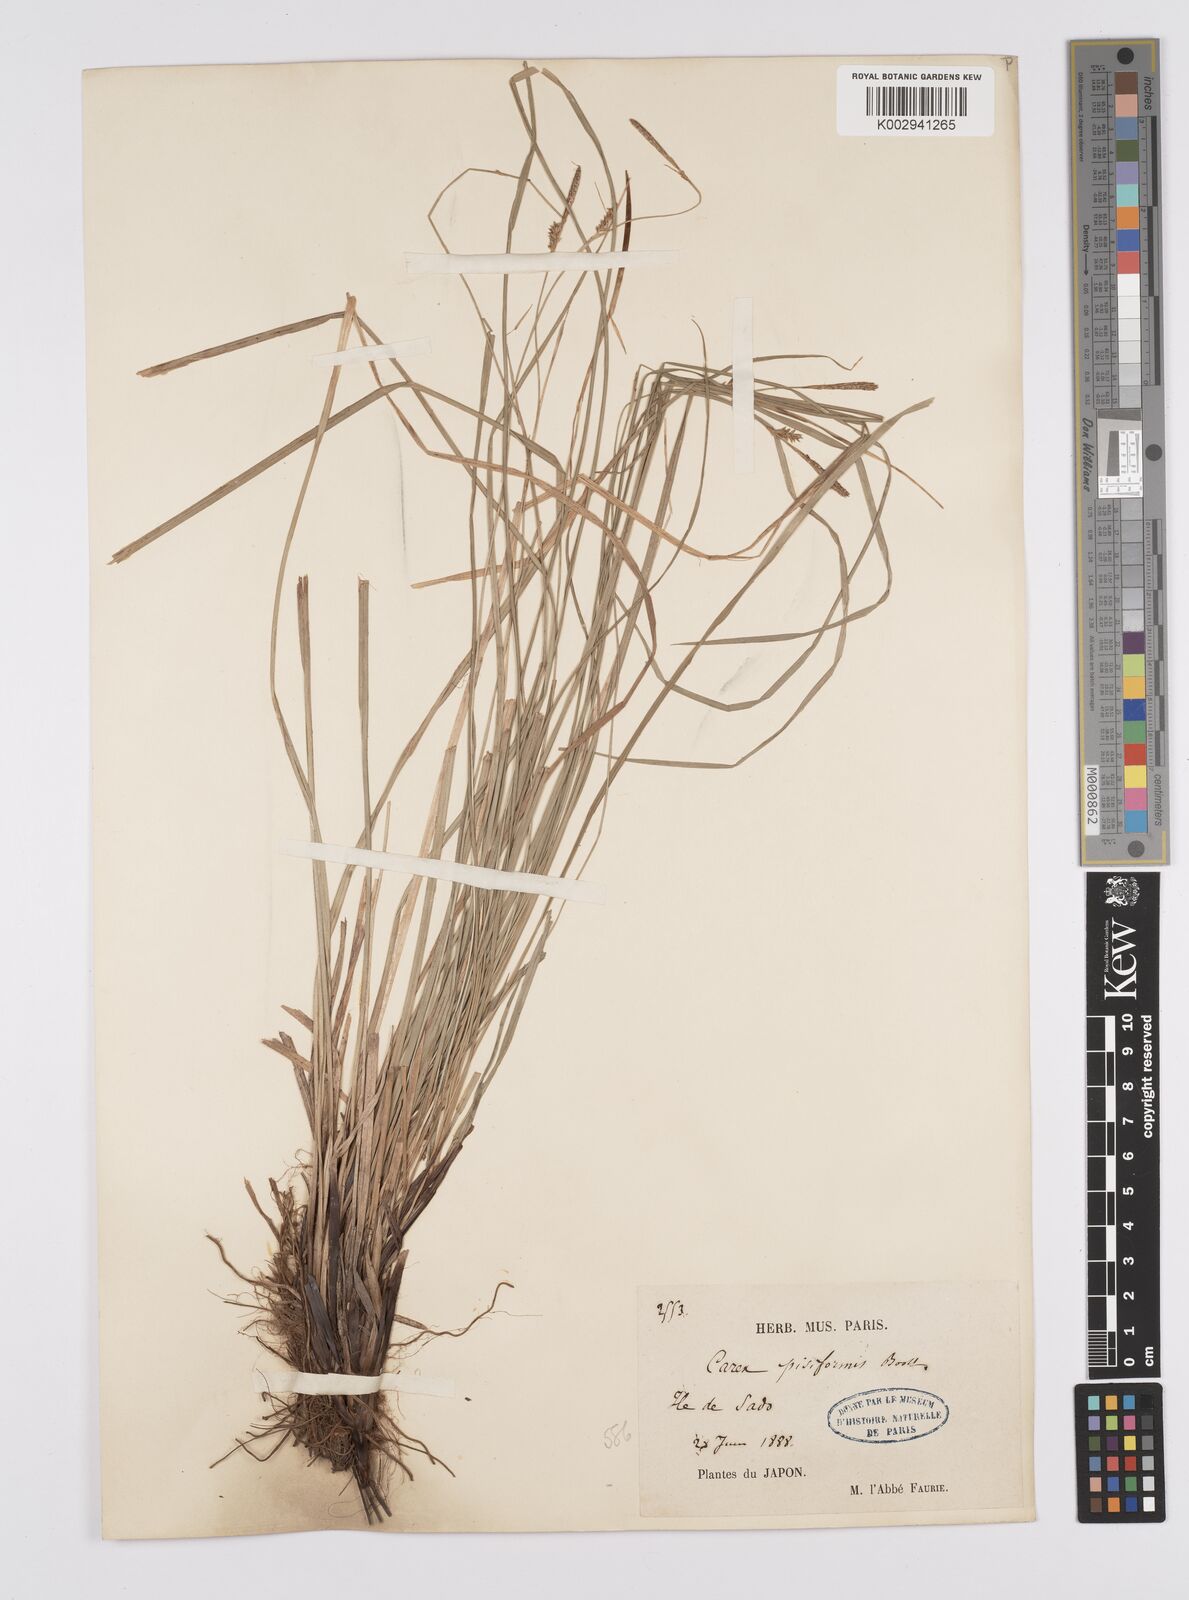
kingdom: Plantae
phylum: Tracheophyta
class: Liliopsida
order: Poales
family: Cyperaceae
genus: Carex
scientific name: Carex pisiformis
